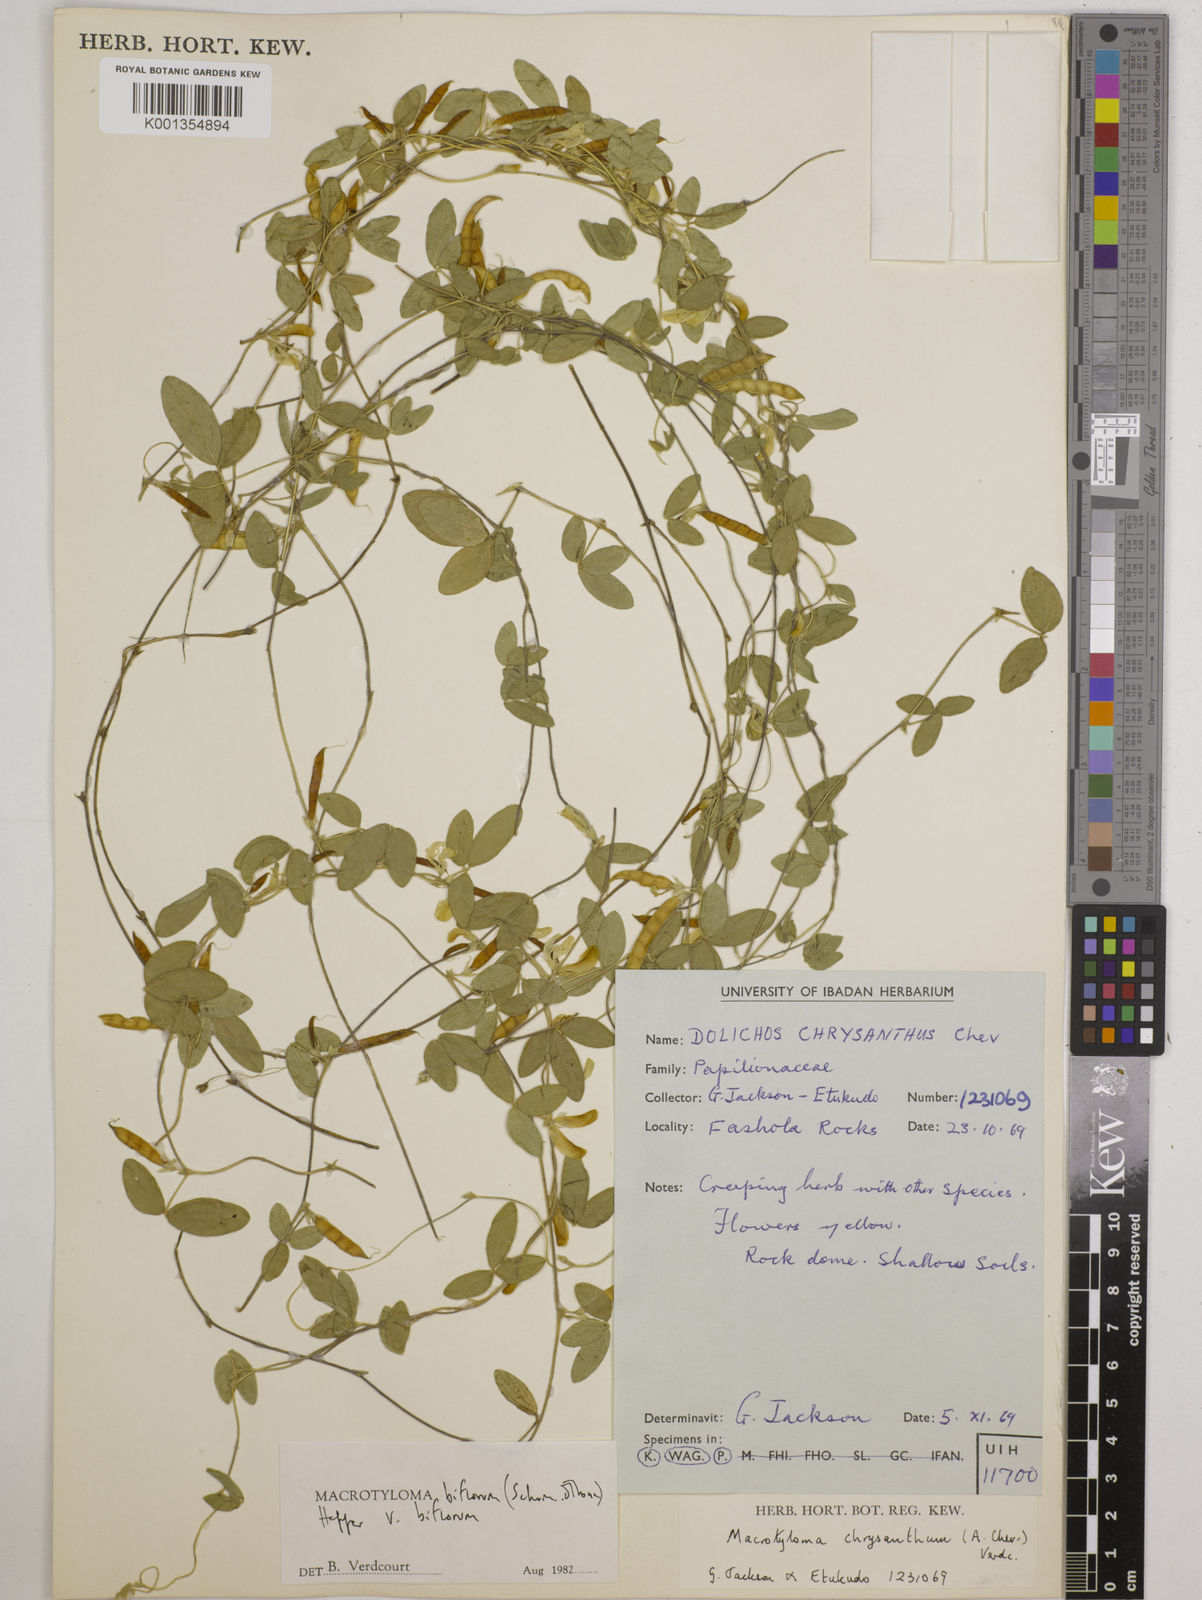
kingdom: Plantae
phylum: Tracheophyta
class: Magnoliopsida
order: Fabales
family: Fabaceae
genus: Macrotyloma
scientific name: Macrotyloma biflorum
